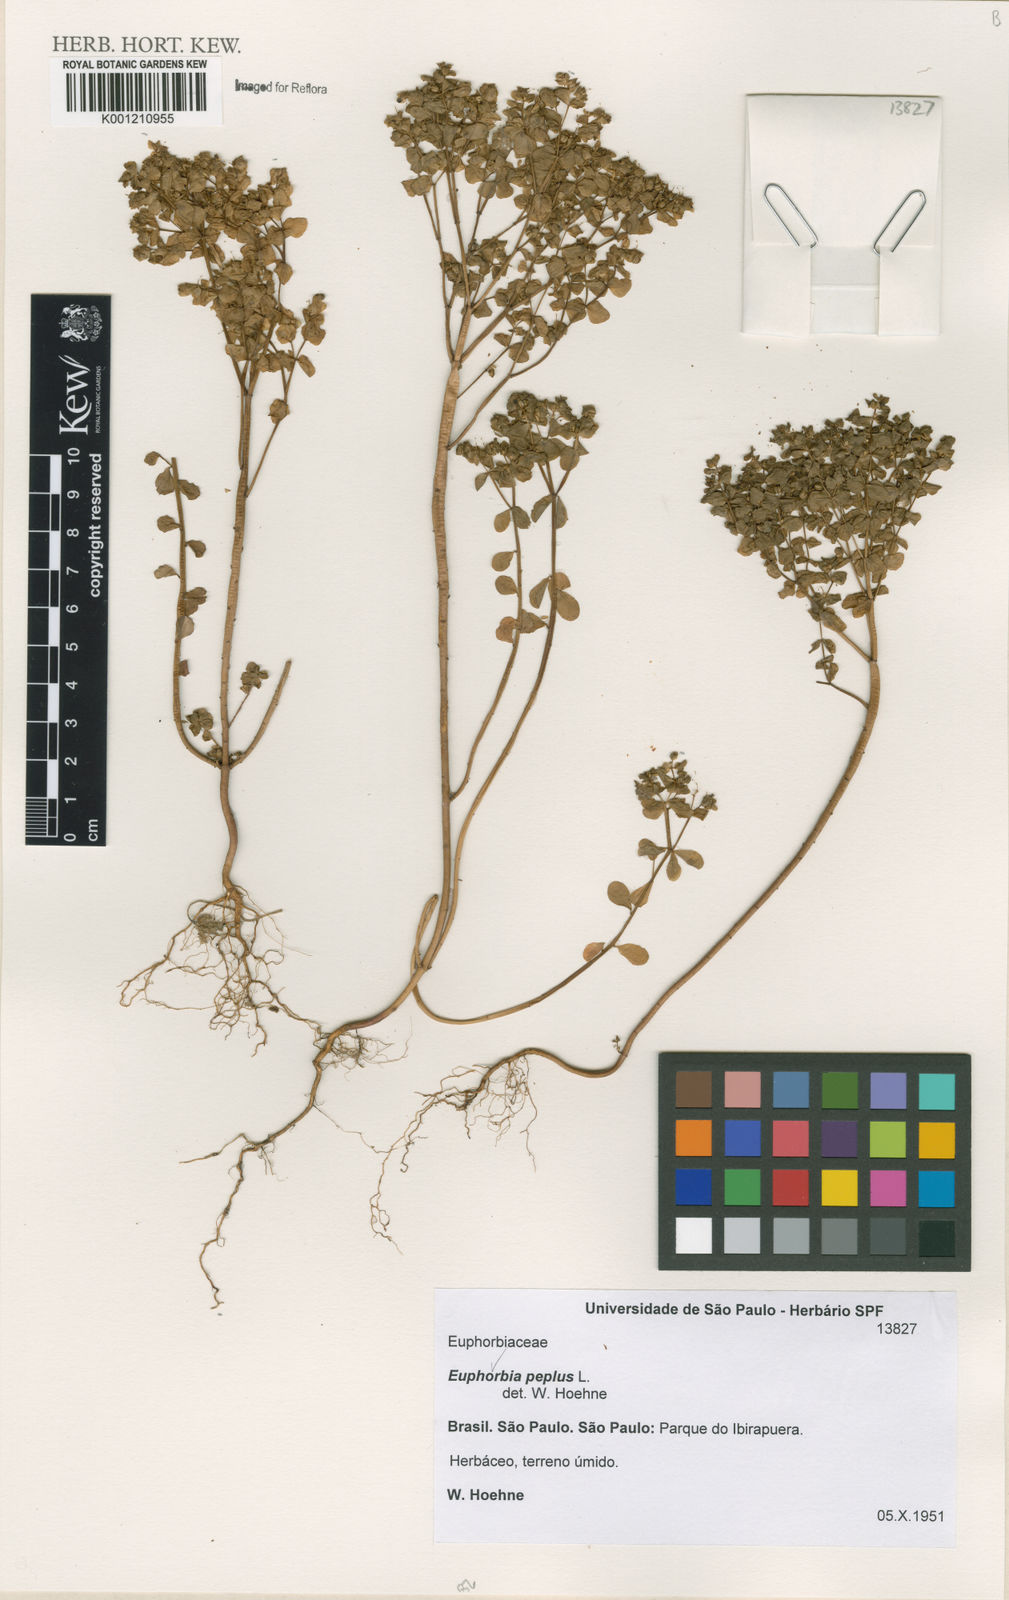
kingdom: Plantae
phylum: Tracheophyta
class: Magnoliopsida
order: Malpighiales
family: Euphorbiaceae
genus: Euphorbia
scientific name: Euphorbia peplus
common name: Petty spurge
